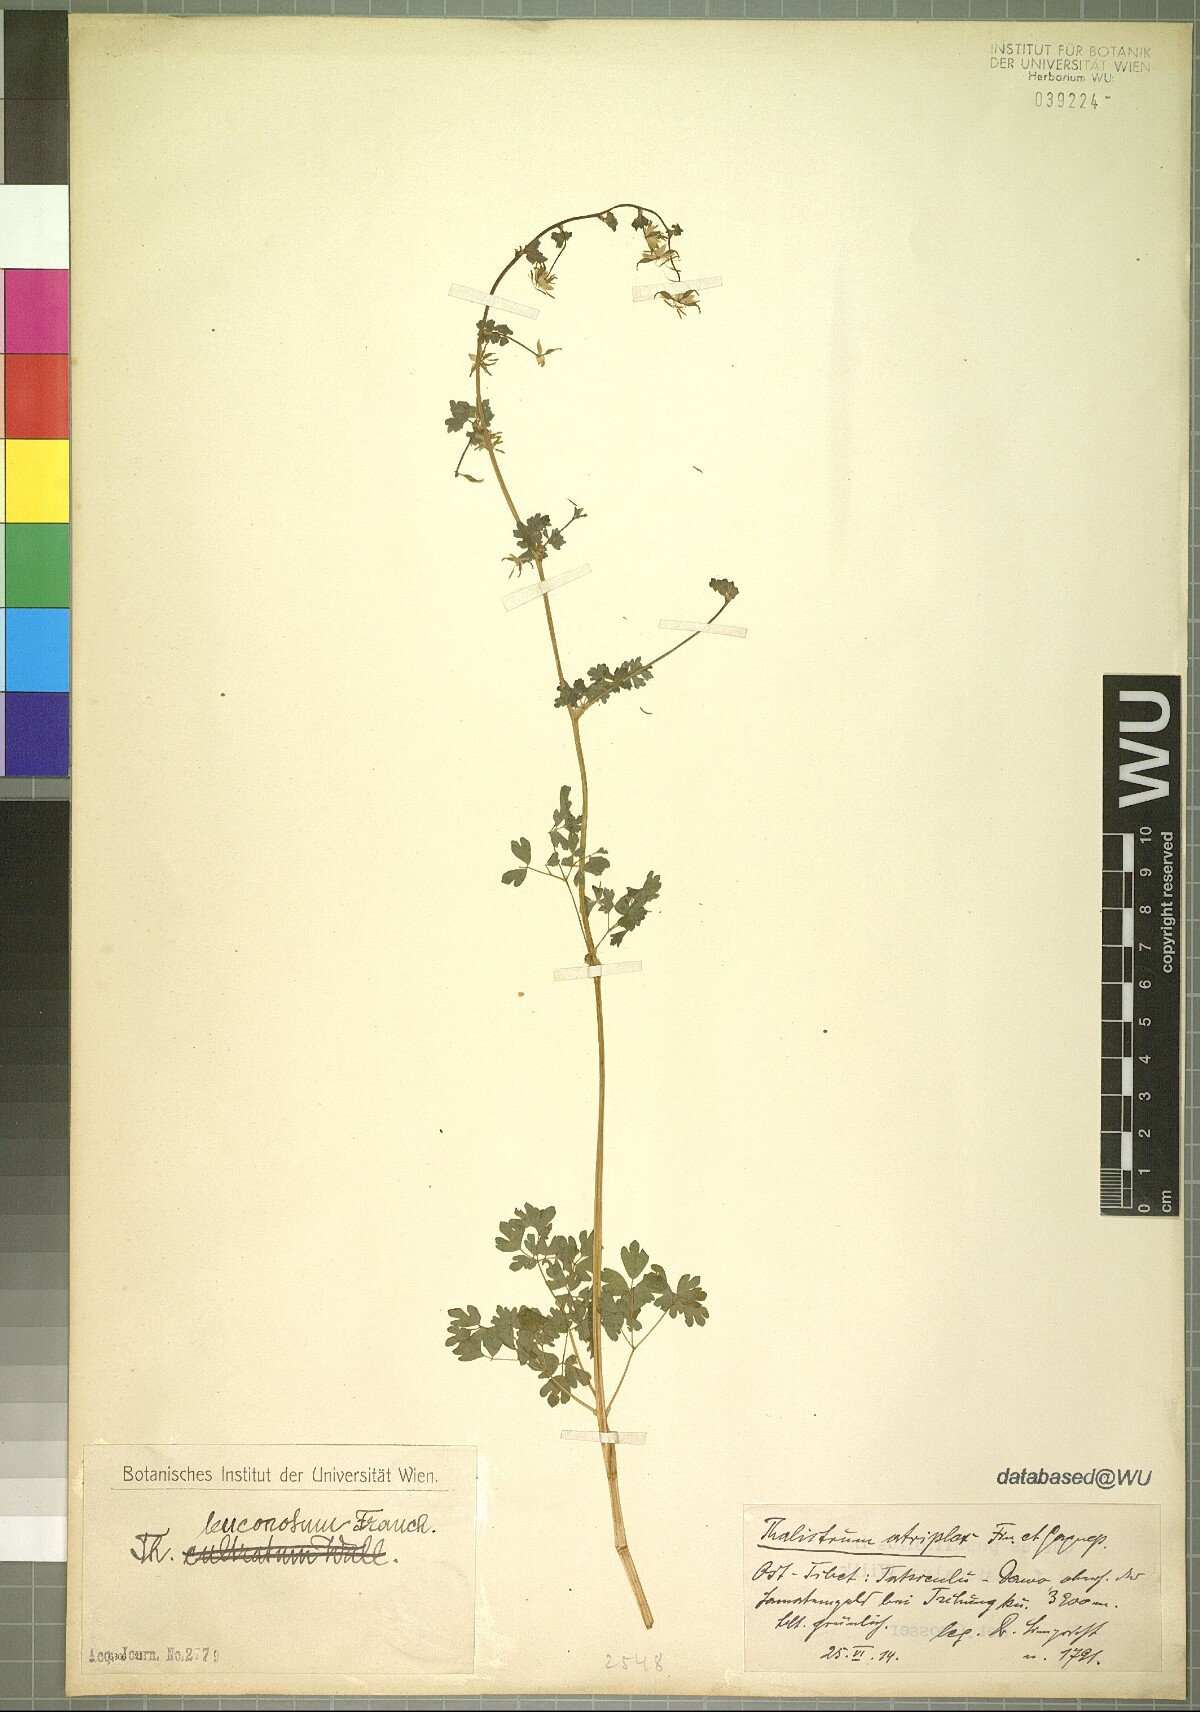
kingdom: Plantae
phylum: Tracheophyta
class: Magnoliopsida
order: Ranunculales
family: Ranunculaceae
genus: Thalictrum
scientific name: Thalictrum leuconotum
